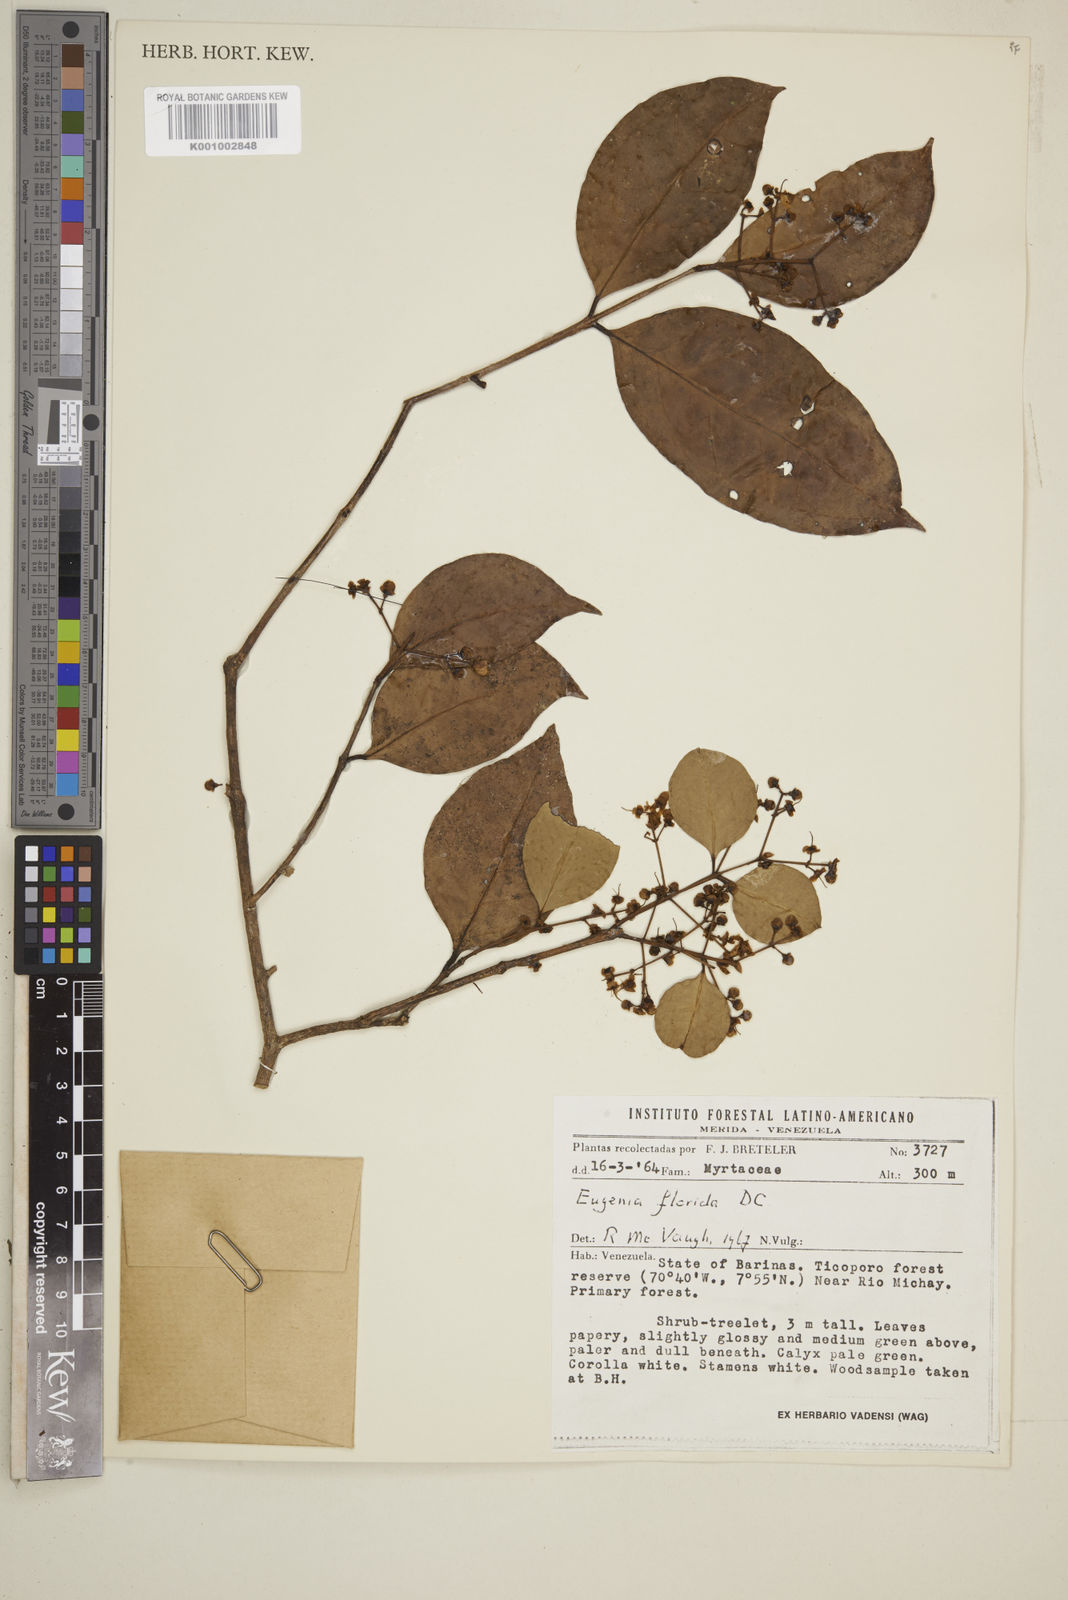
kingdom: Plantae
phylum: Tracheophyta
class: Magnoliopsida
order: Myrtales
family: Myrtaceae
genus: Eugenia
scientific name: Eugenia florida
